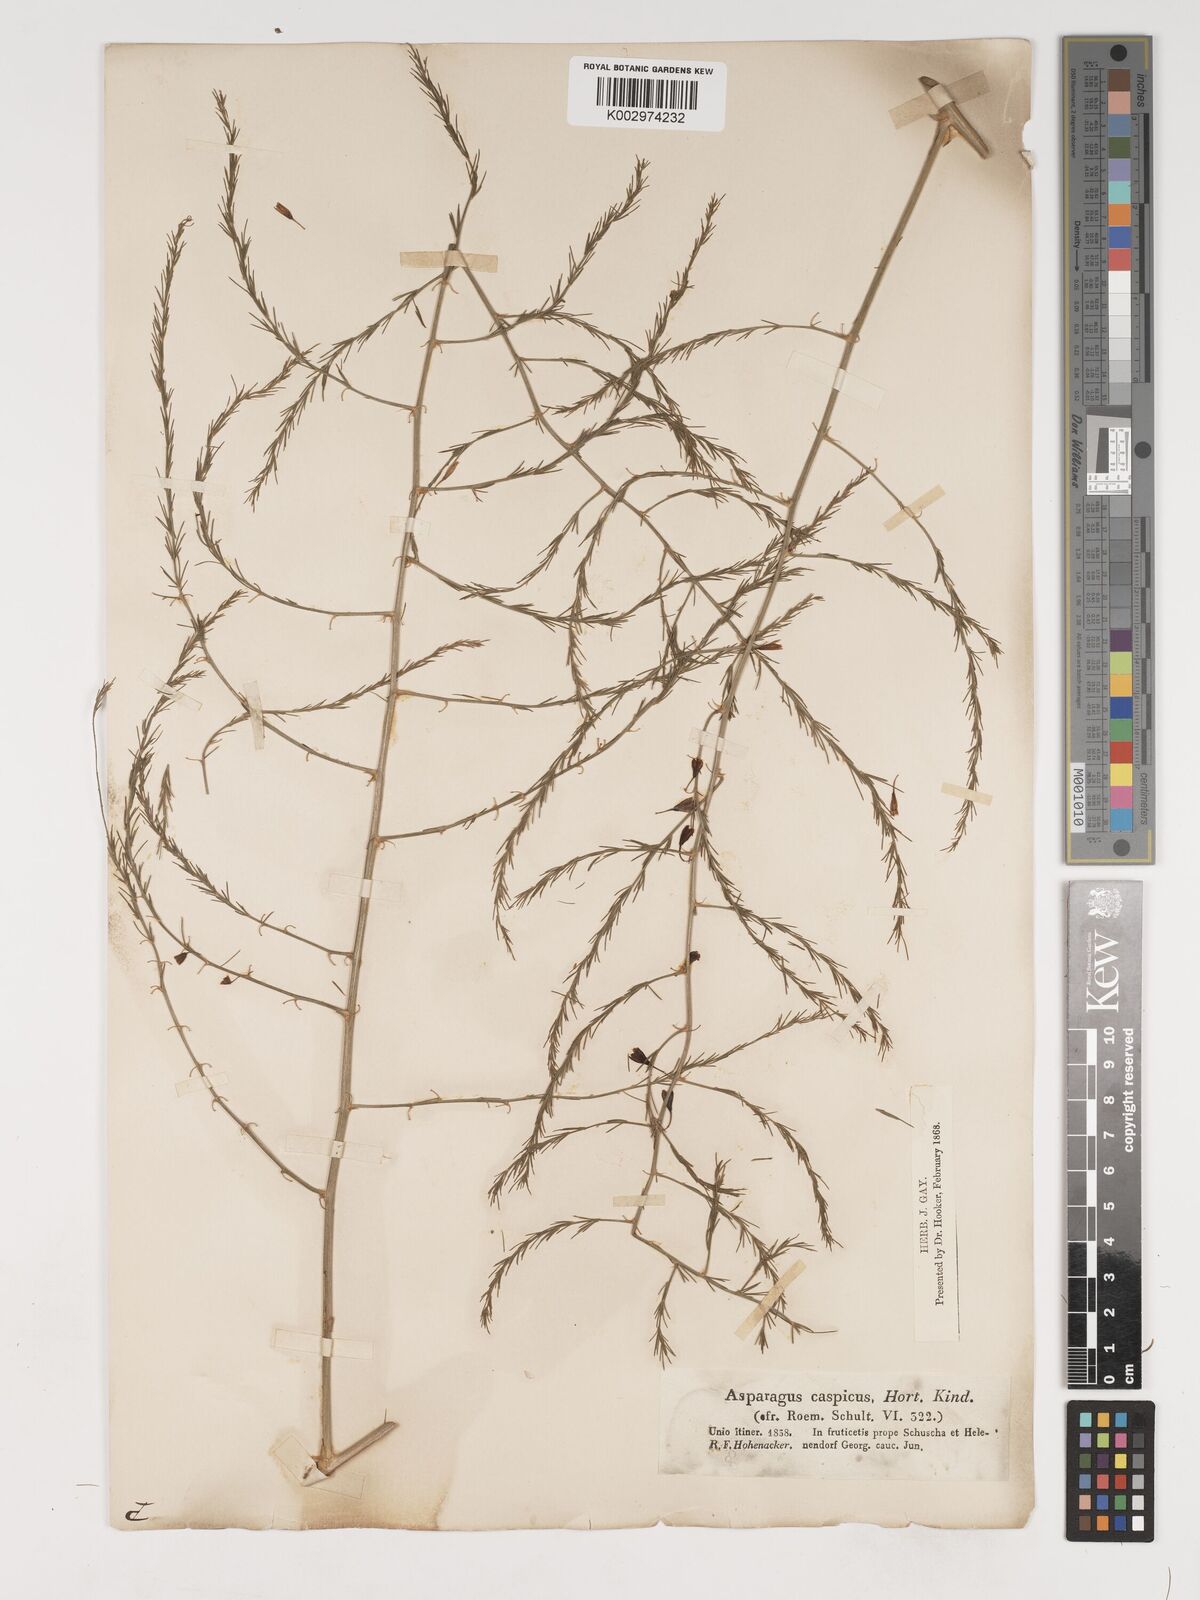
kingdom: Plantae
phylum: Tracheophyta
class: Liliopsida
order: Asparagales
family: Asparagaceae
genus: Asparagus
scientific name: Asparagus officinalis
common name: Garden asparagus
